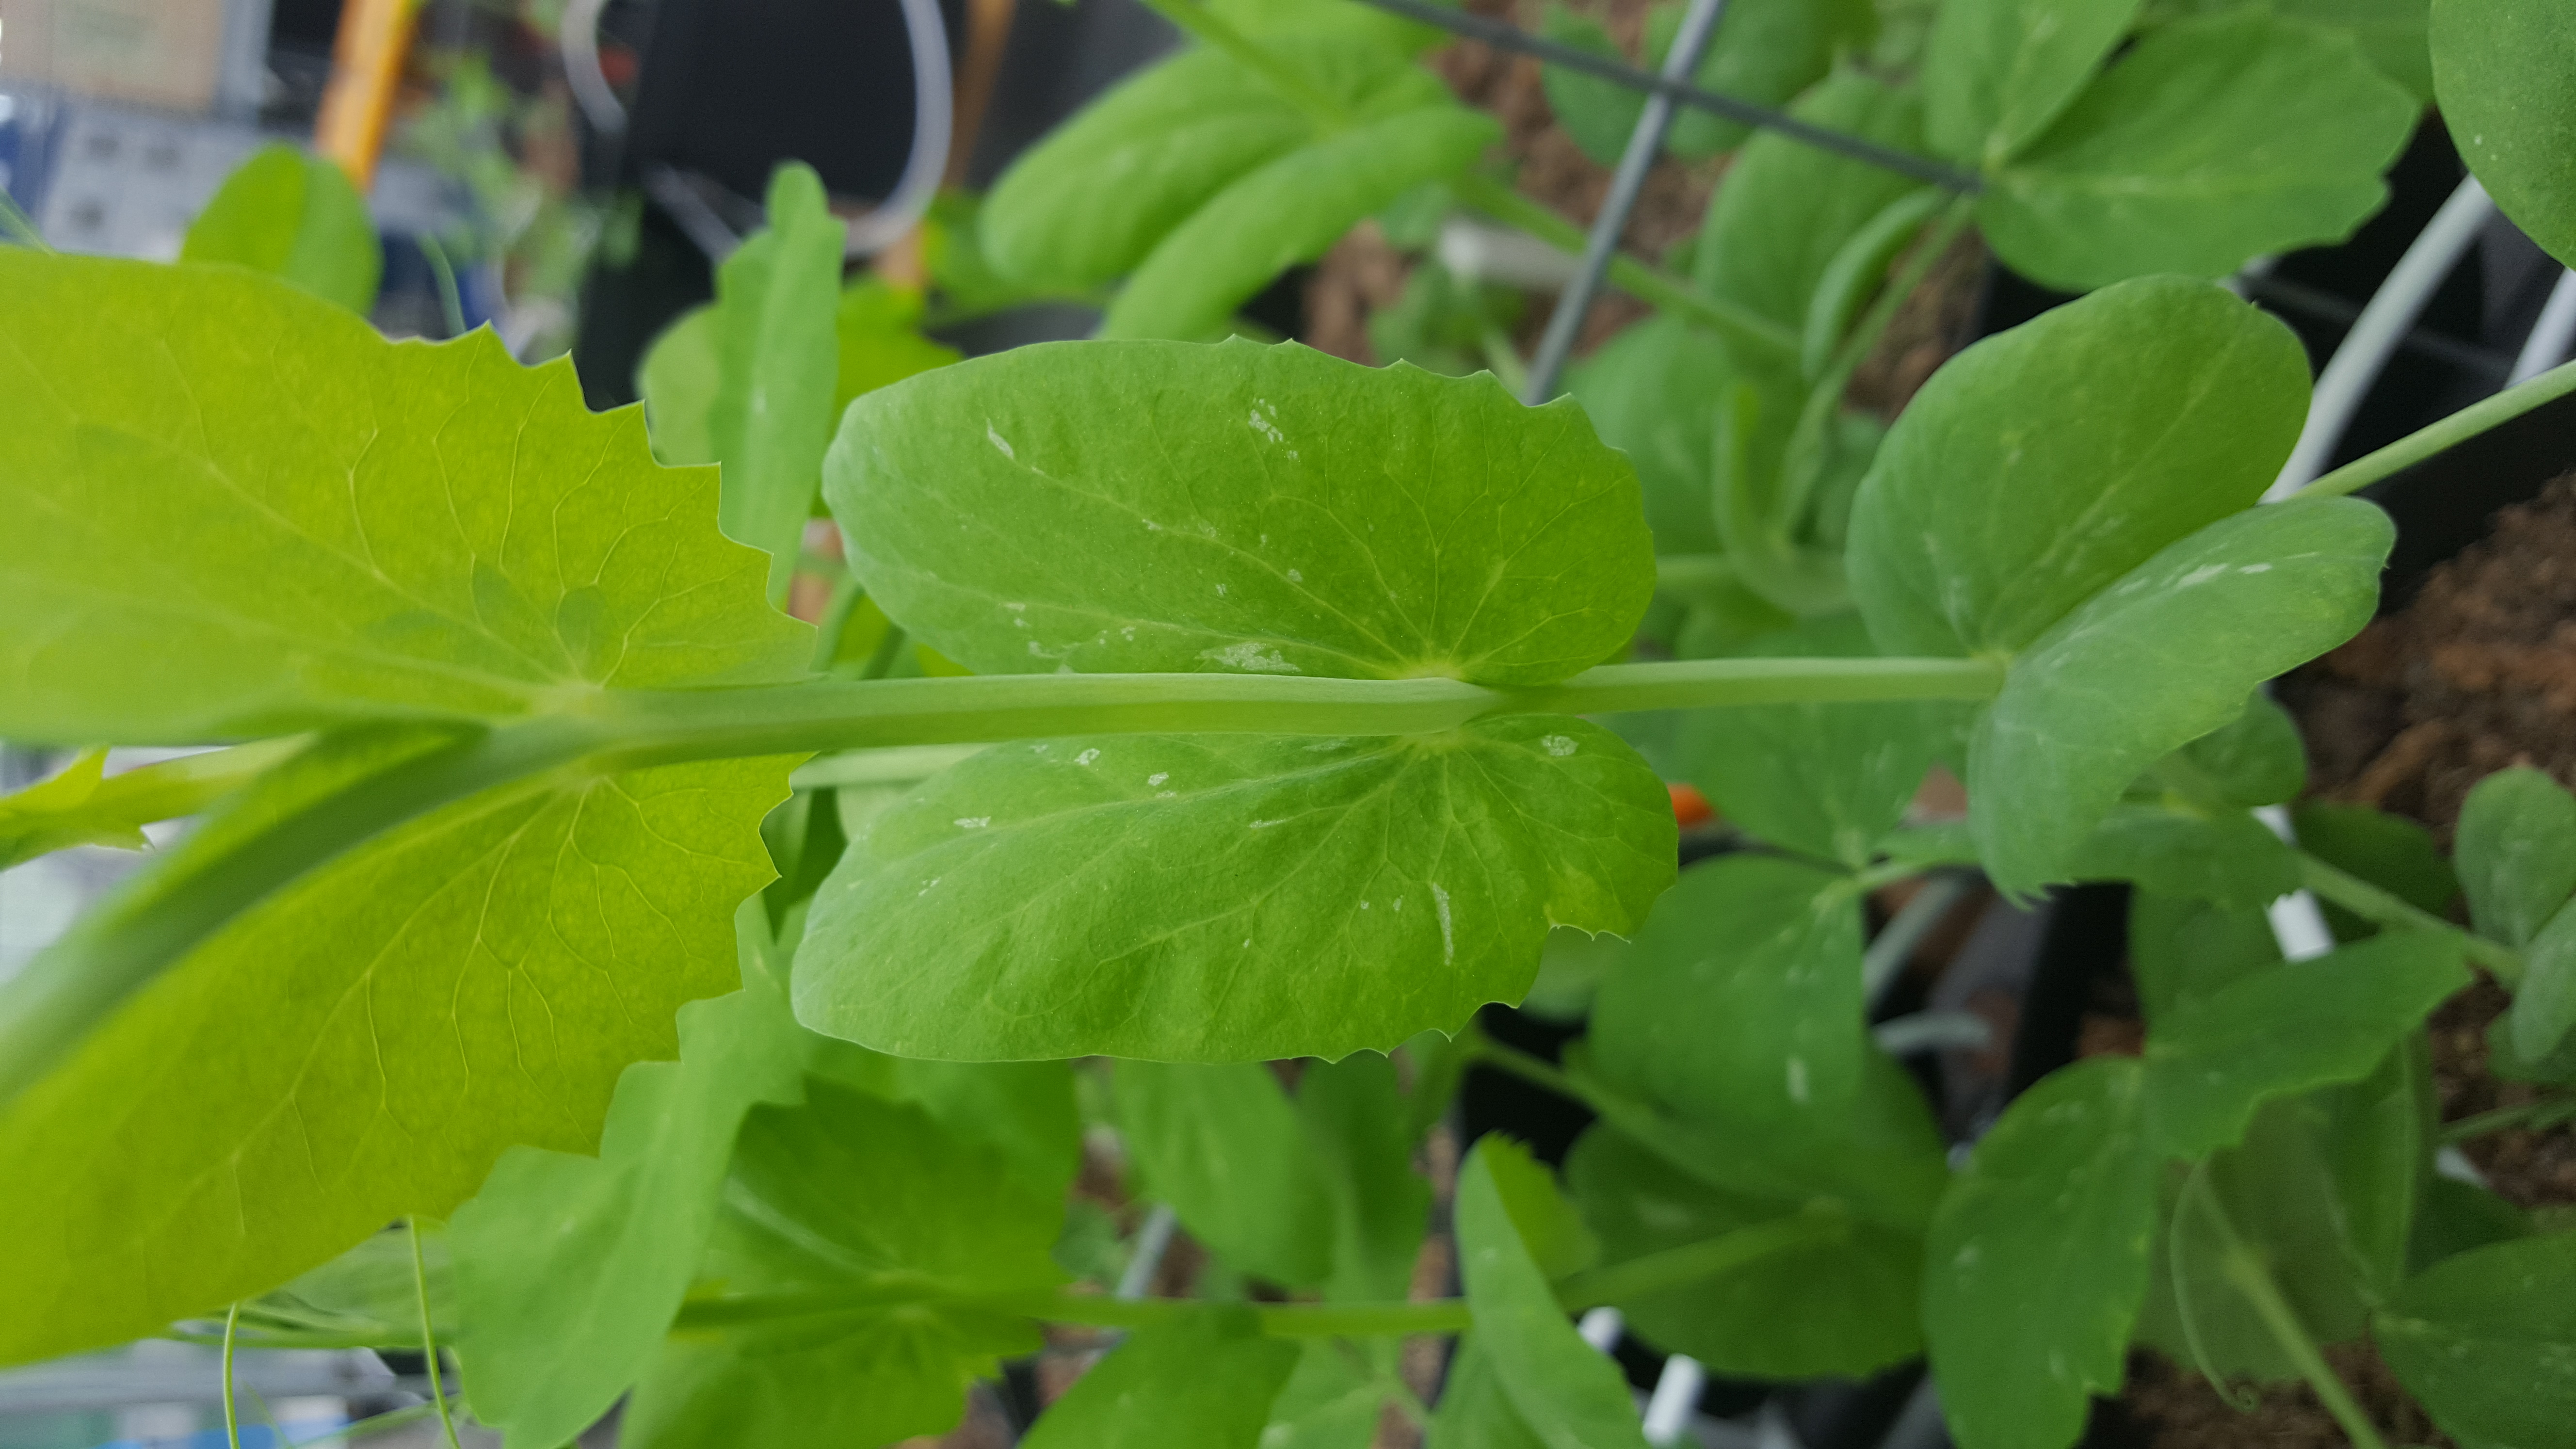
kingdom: Plantae
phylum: Tracheophyta
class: Magnoliopsida
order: Fabales
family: Fabaceae
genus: Lathyrus
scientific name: Lathyrus oleraceus
